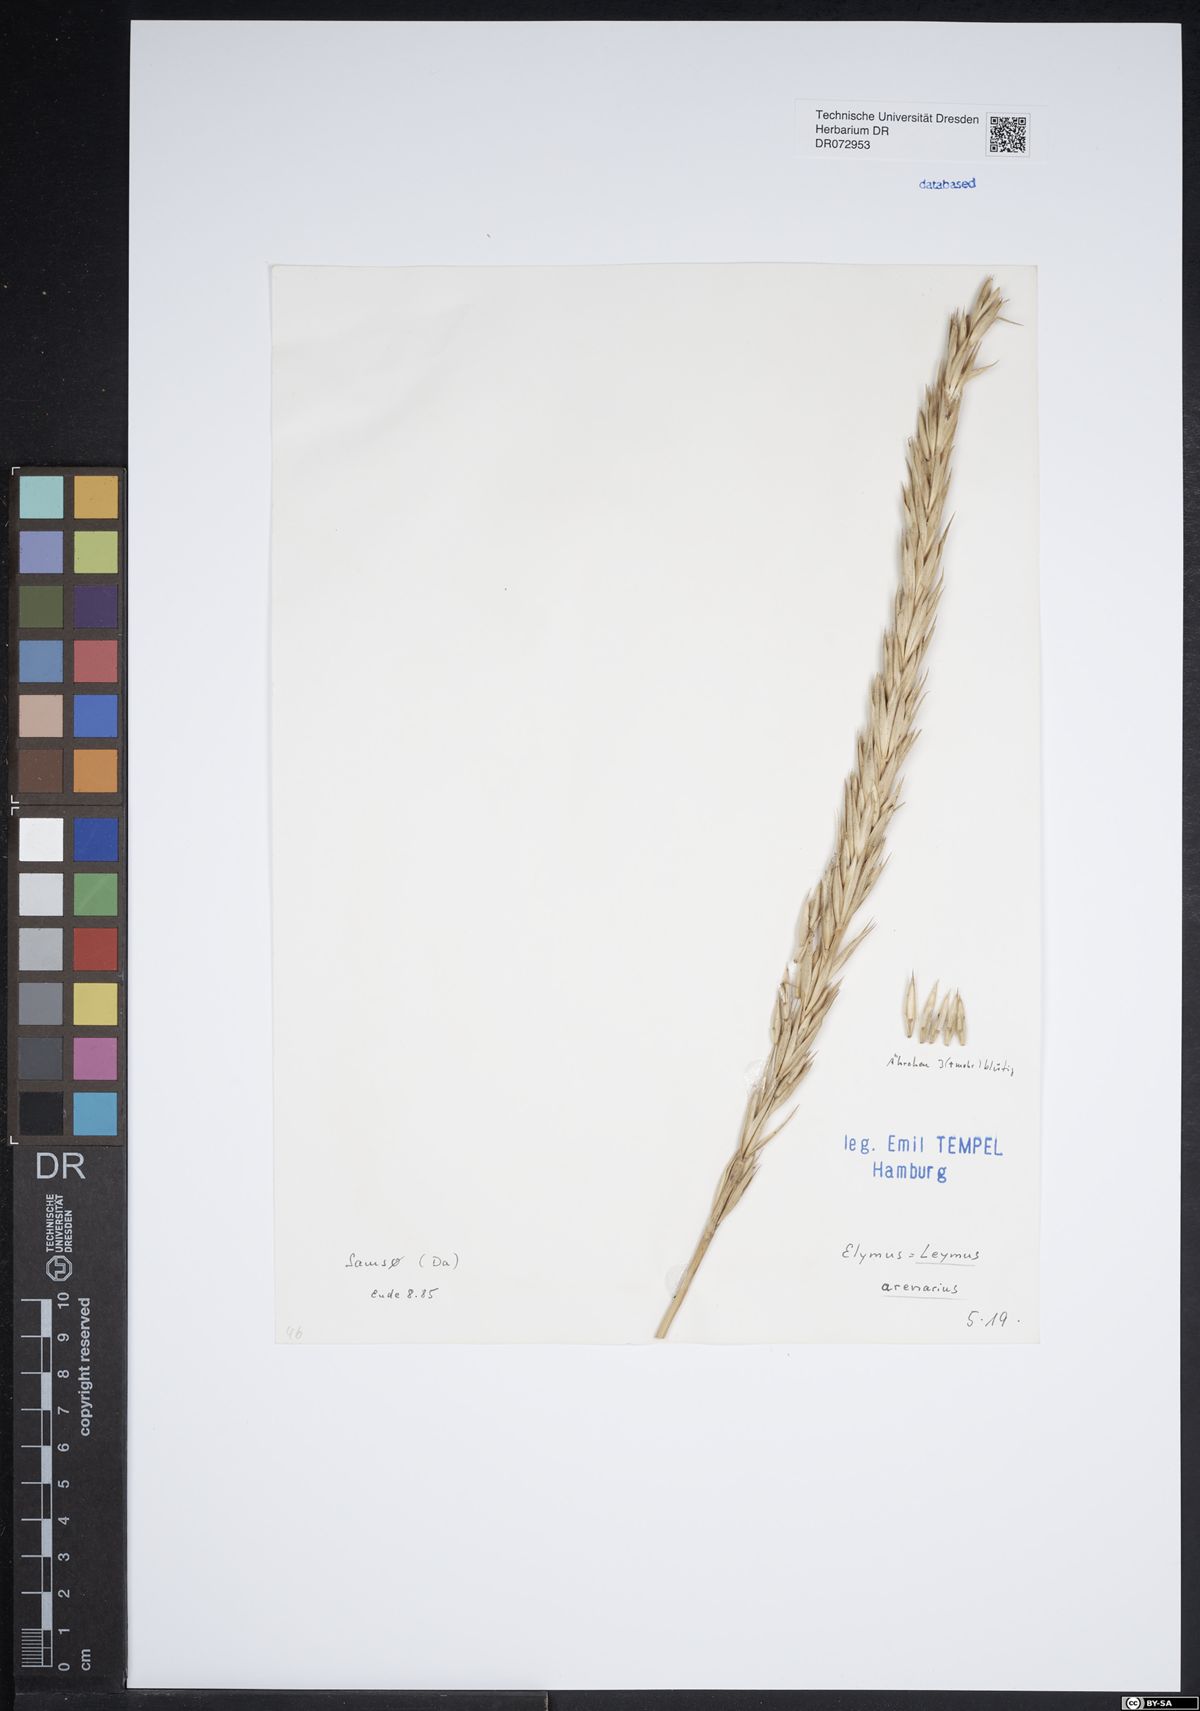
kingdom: Plantae
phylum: Tracheophyta
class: Liliopsida
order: Poales
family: Poaceae
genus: Leymus
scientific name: Leymus arenarius
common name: Lyme-grass
